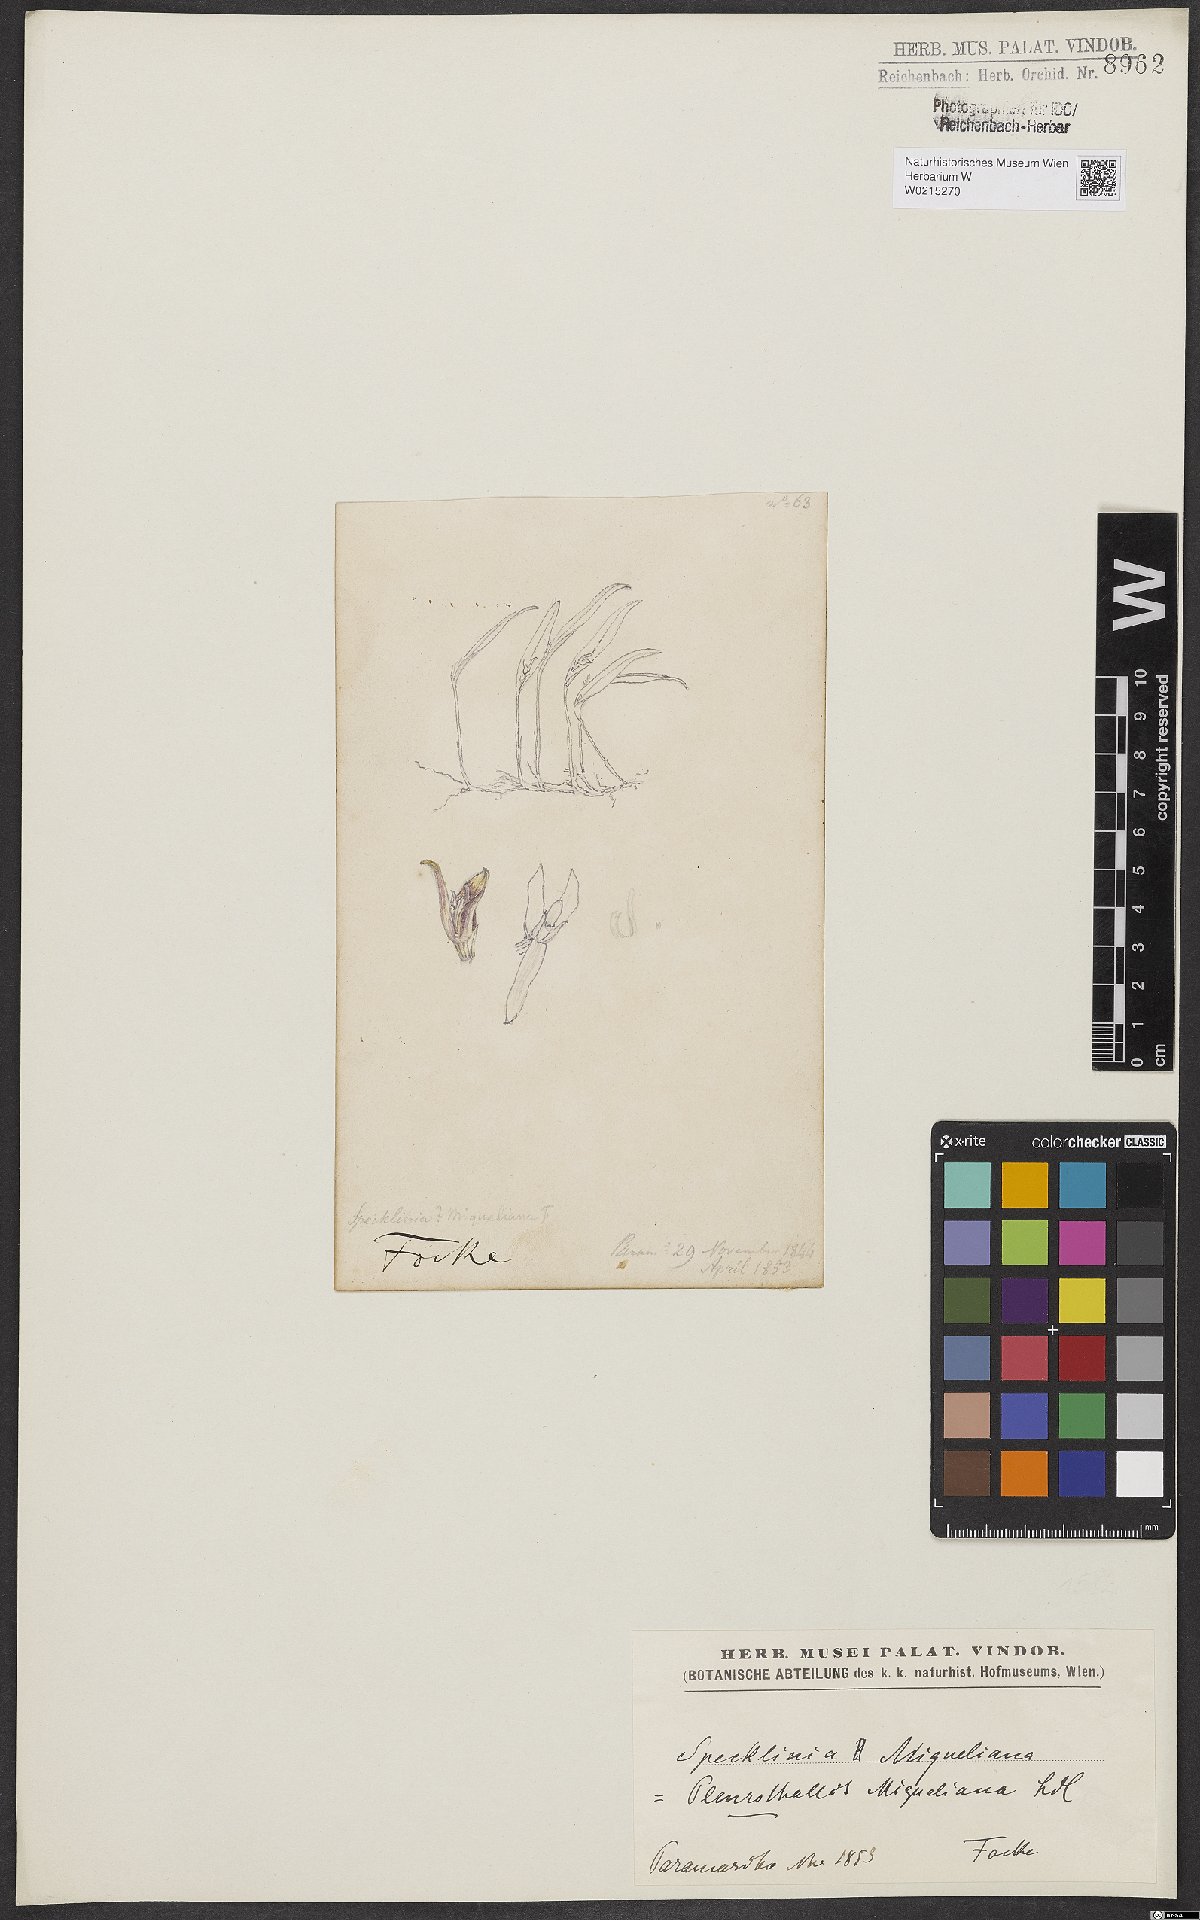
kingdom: Plantae
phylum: Tracheophyta
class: Liliopsida
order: Asparagales
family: Orchidaceae
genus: Pleurothallis
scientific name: Pleurothallis
